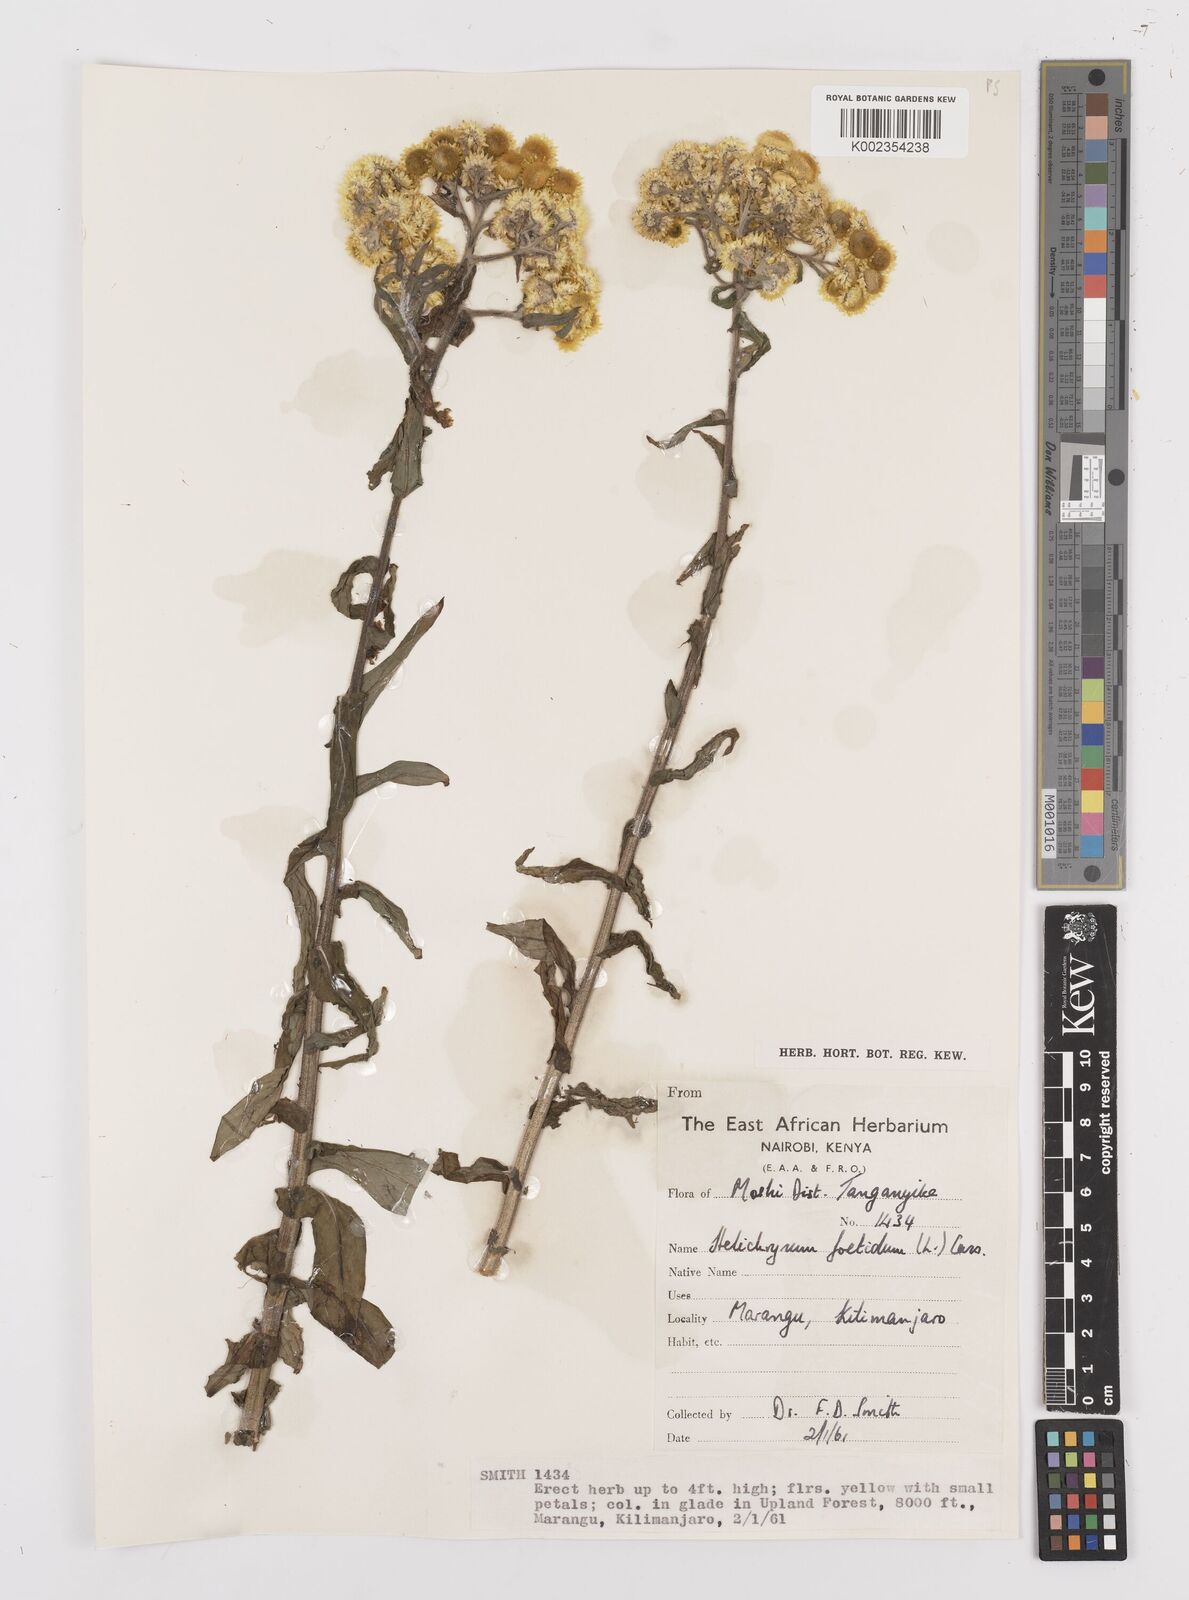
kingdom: Plantae
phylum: Tracheophyta
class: Magnoliopsida
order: Asterales
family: Asteraceae
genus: Helichrysum
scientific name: Helichrysum
